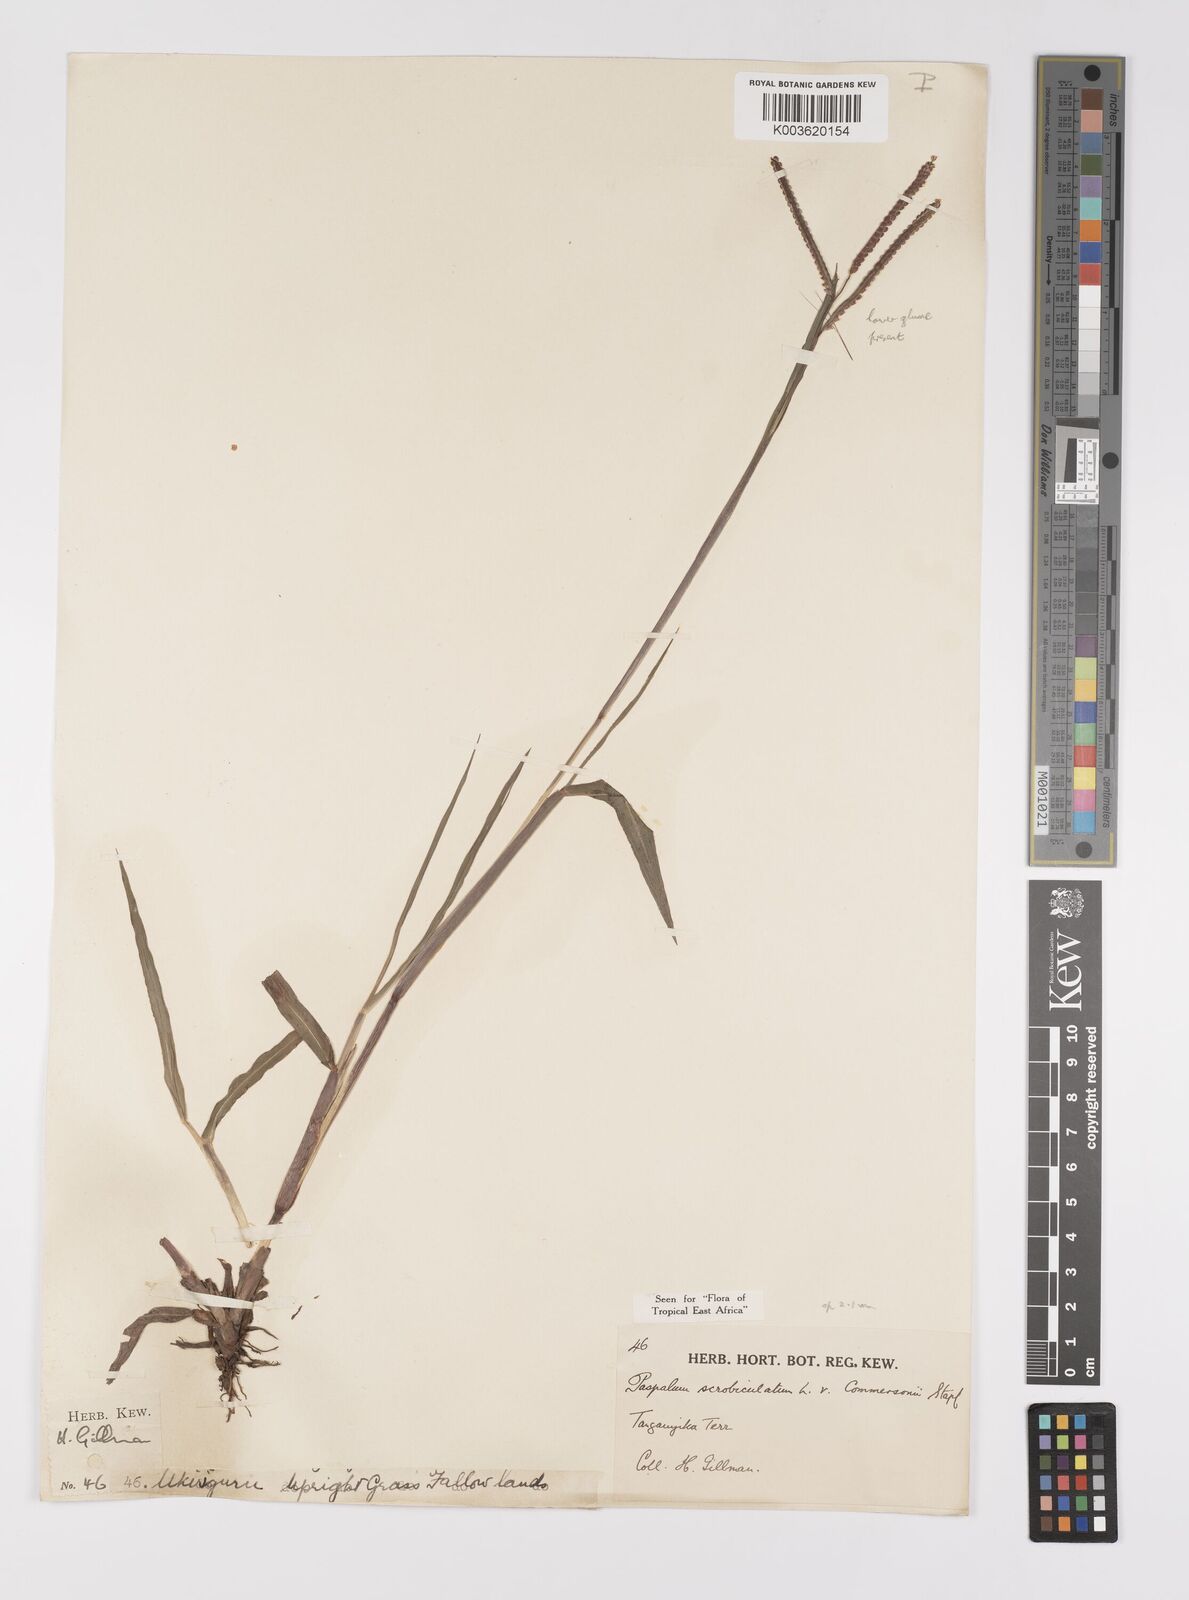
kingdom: Plantae
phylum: Tracheophyta
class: Liliopsida
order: Poales
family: Poaceae
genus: Paspalum
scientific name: Paspalum scrobiculatum
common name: Kodo millet
